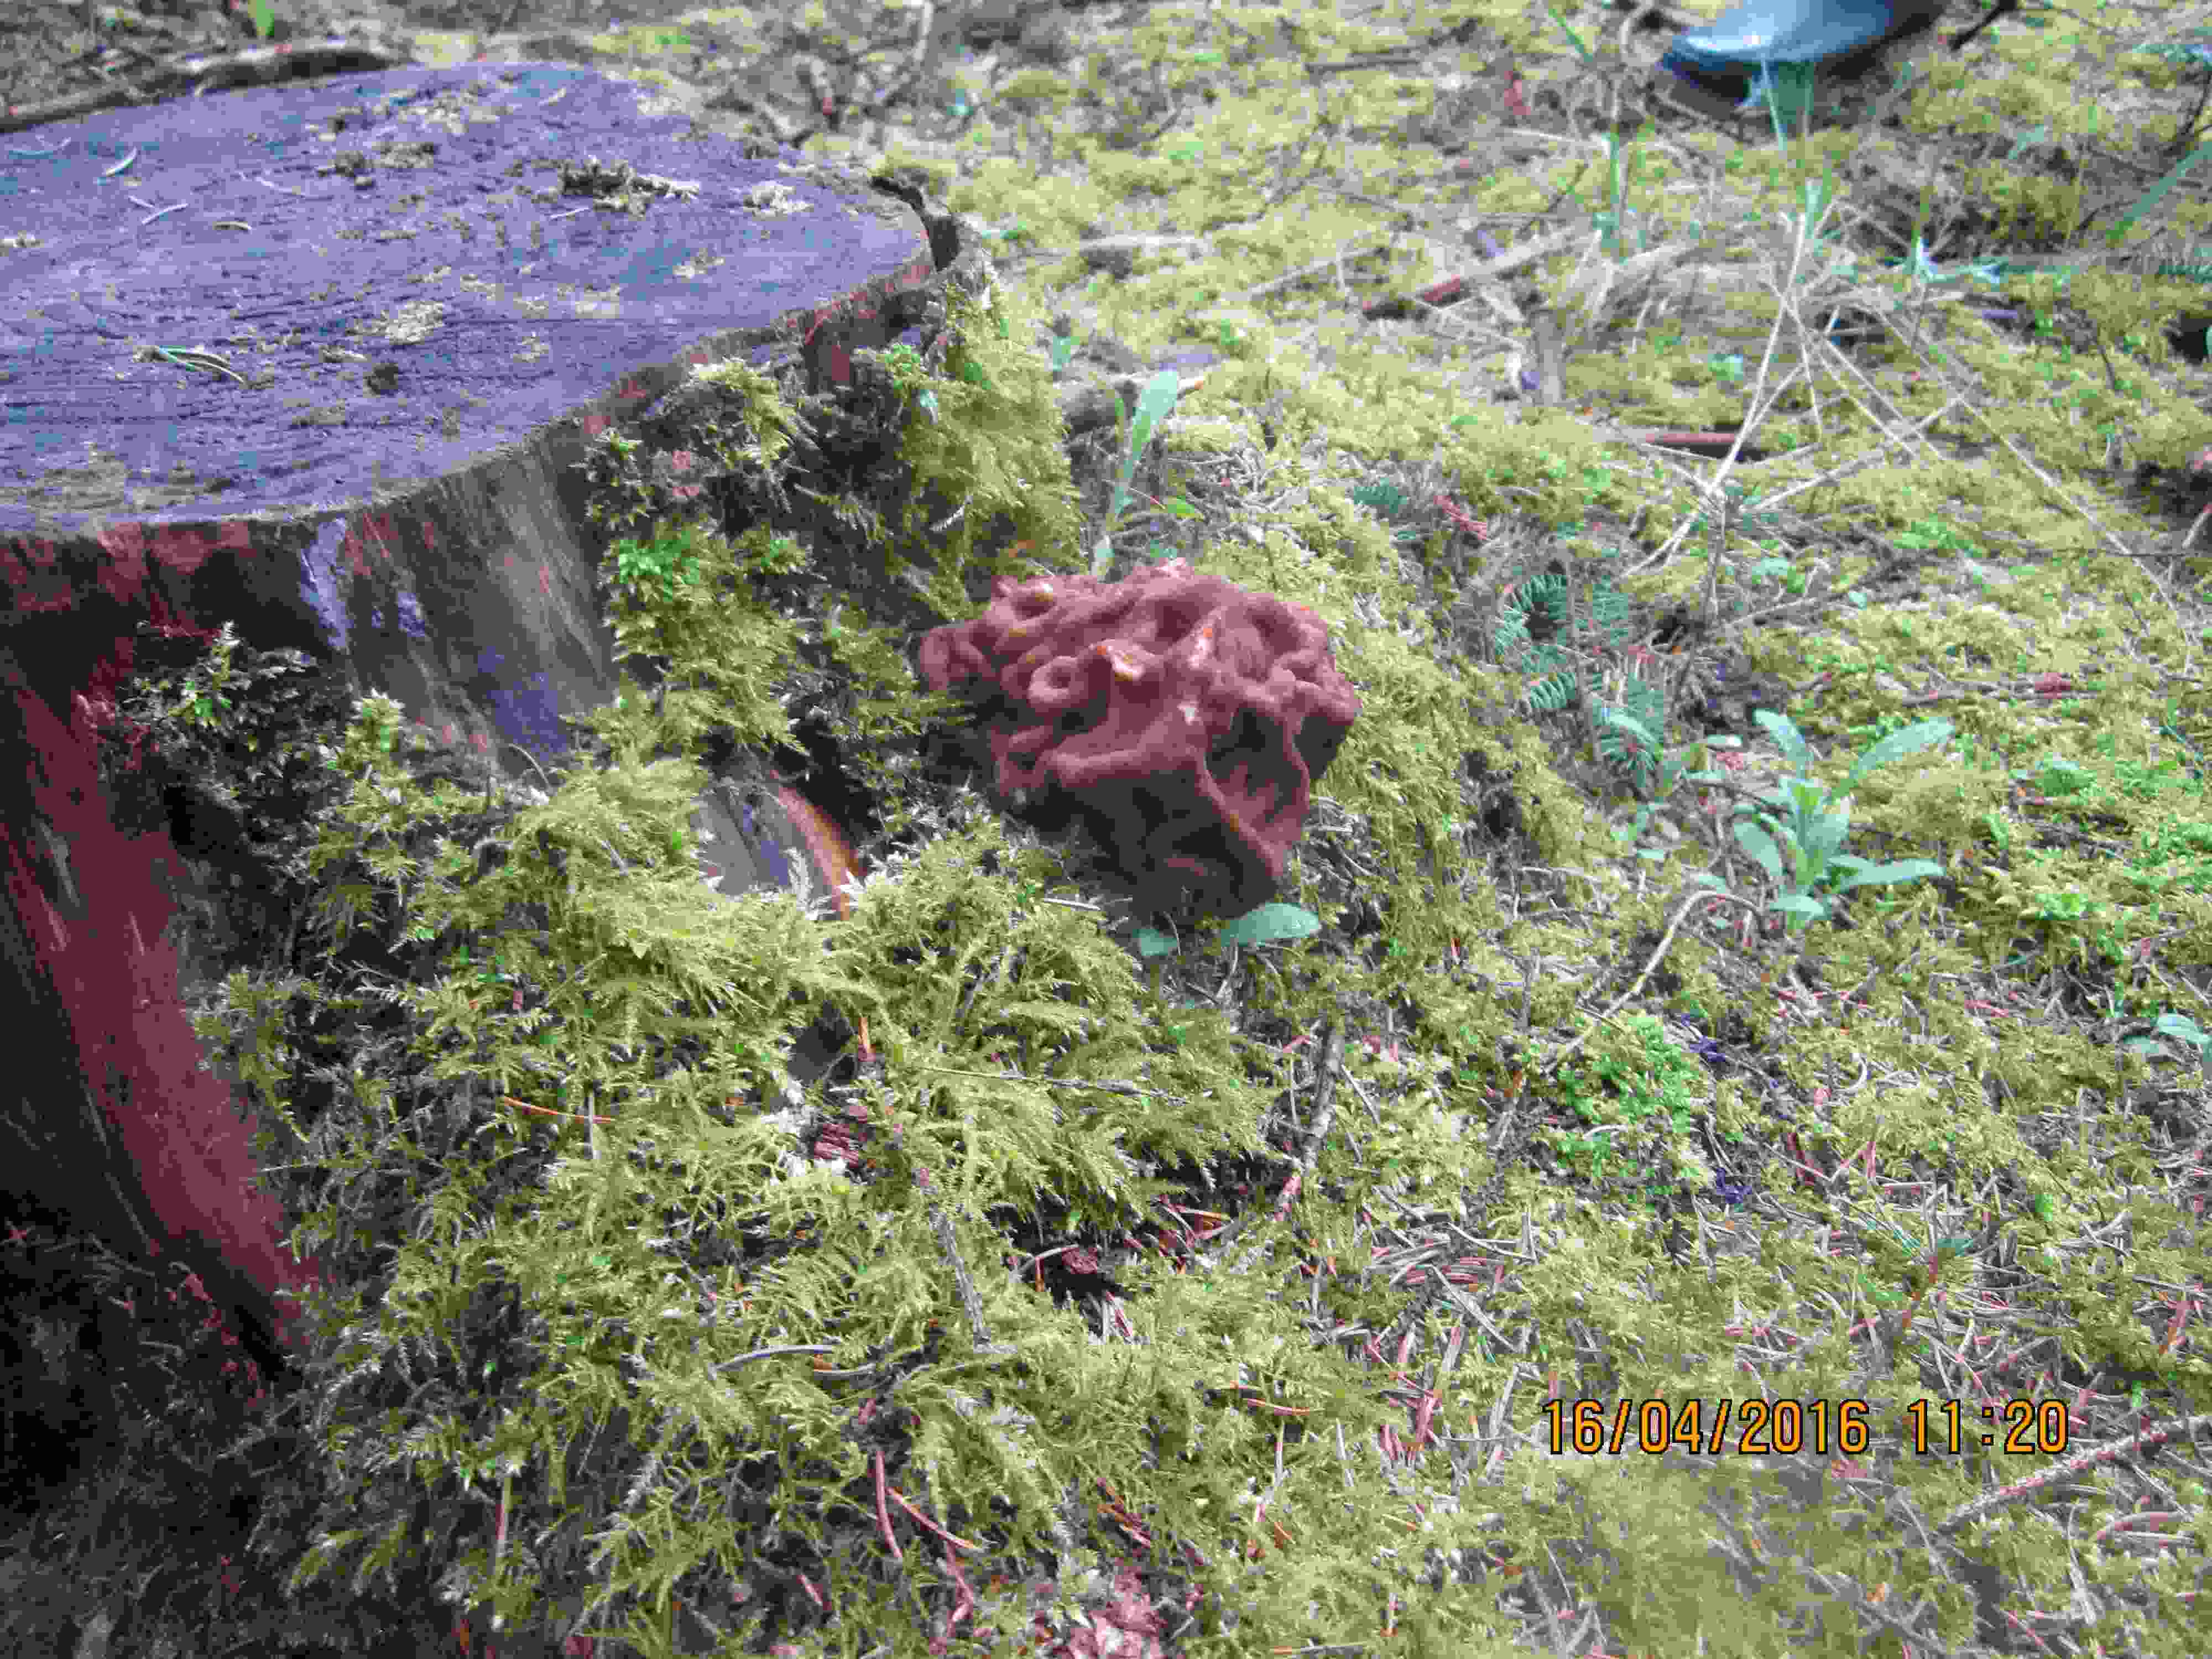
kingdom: Fungi
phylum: Ascomycota
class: Pezizomycetes
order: Pezizales
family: Discinaceae
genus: Gyromitra
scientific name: Gyromitra gigas
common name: kæmpe-stenmorkel
